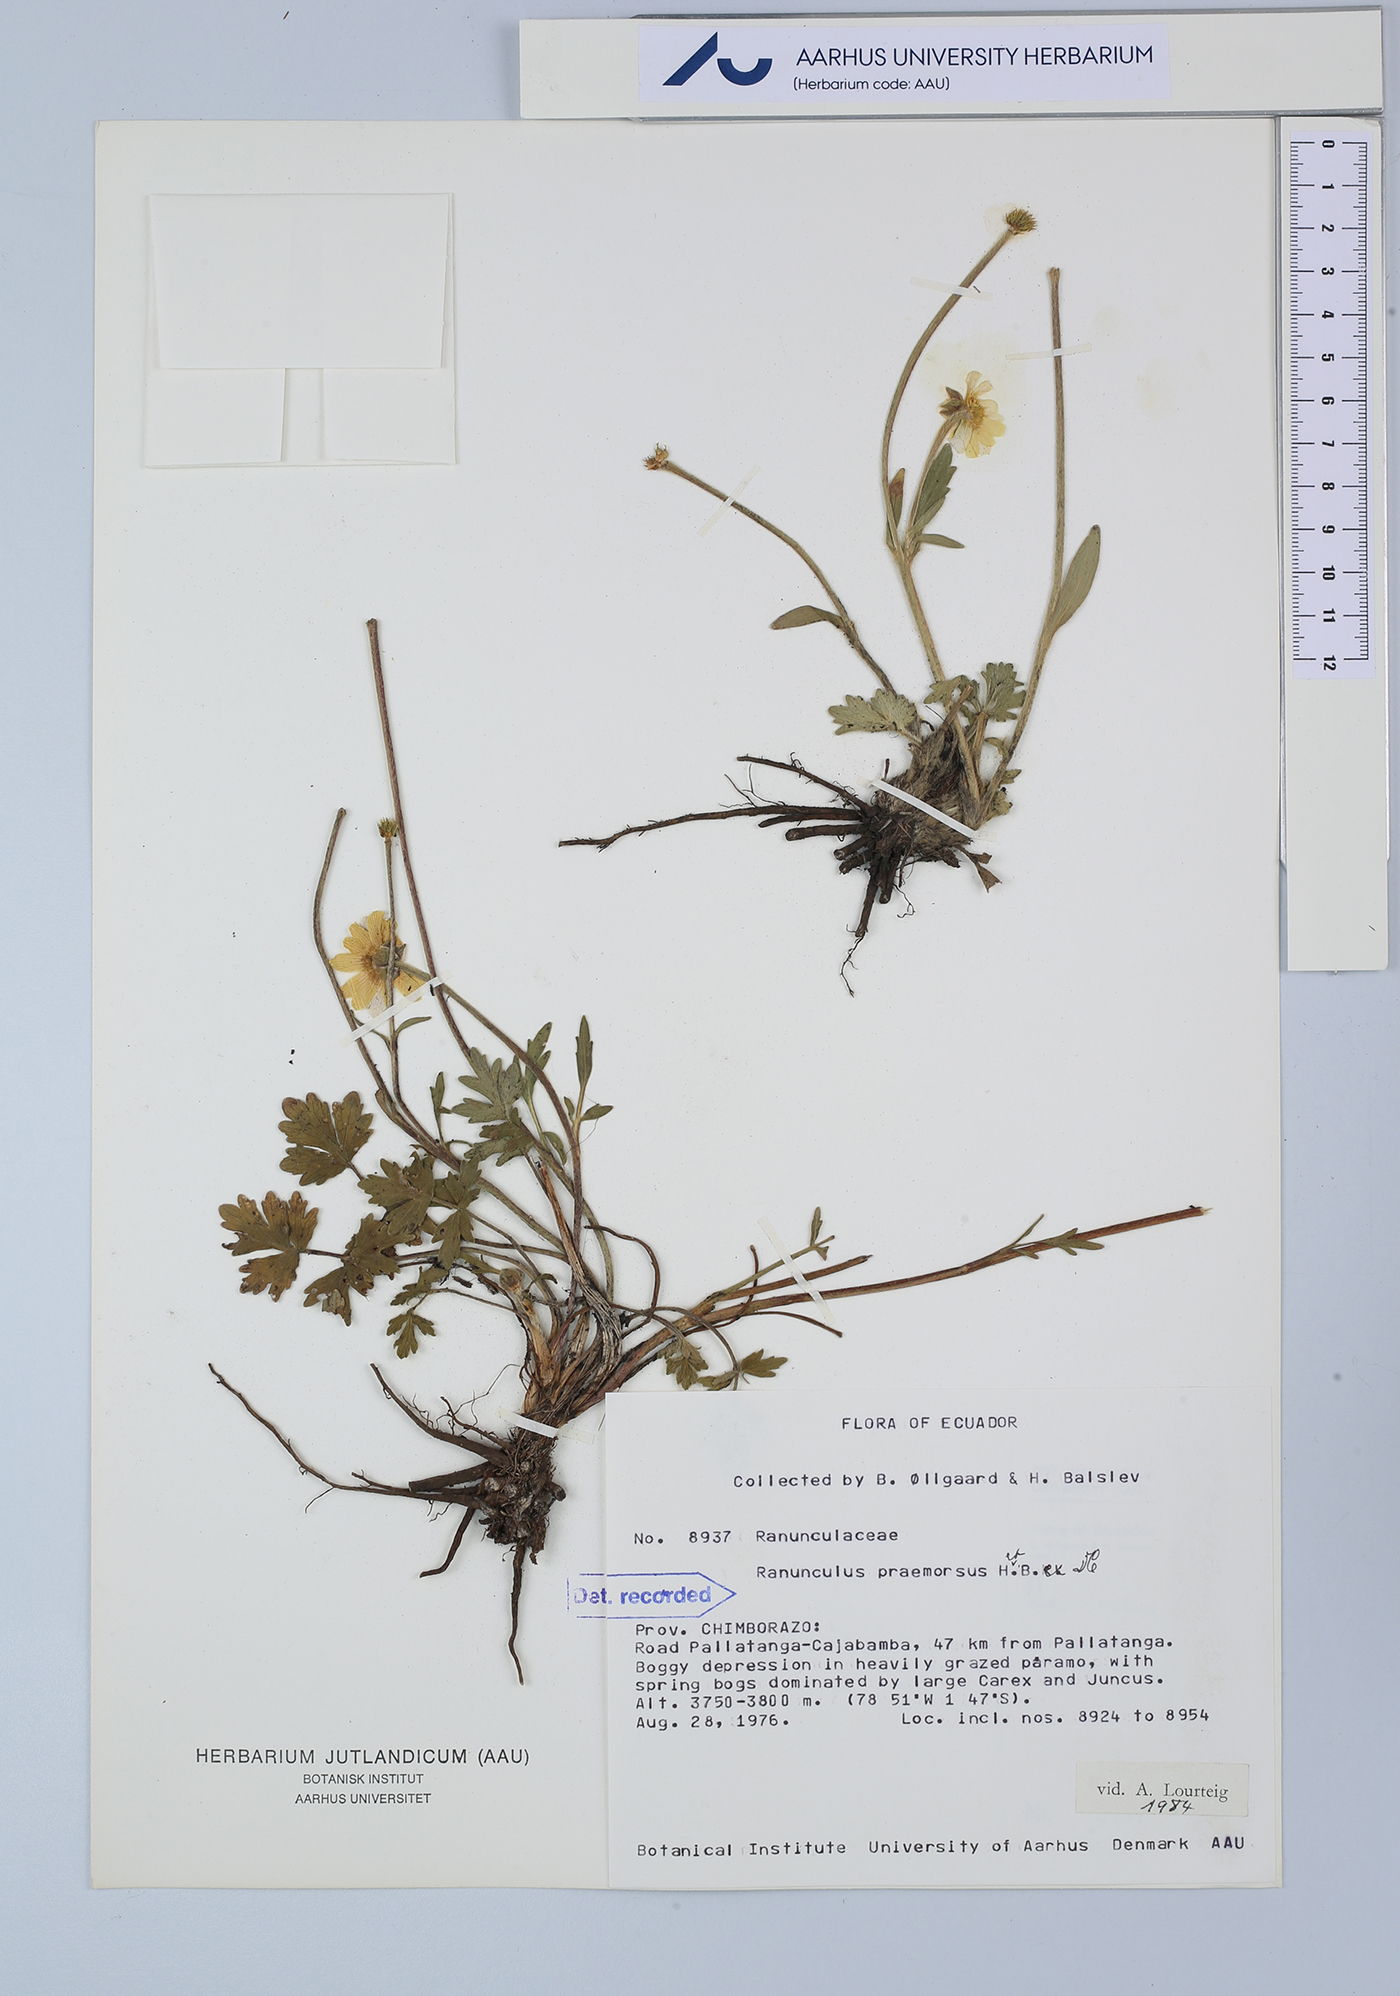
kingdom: Plantae
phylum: Tracheophyta
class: Magnoliopsida
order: Ranunculales
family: Ranunculaceae
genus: Ranunculus
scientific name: Ranunculus praemorsus
